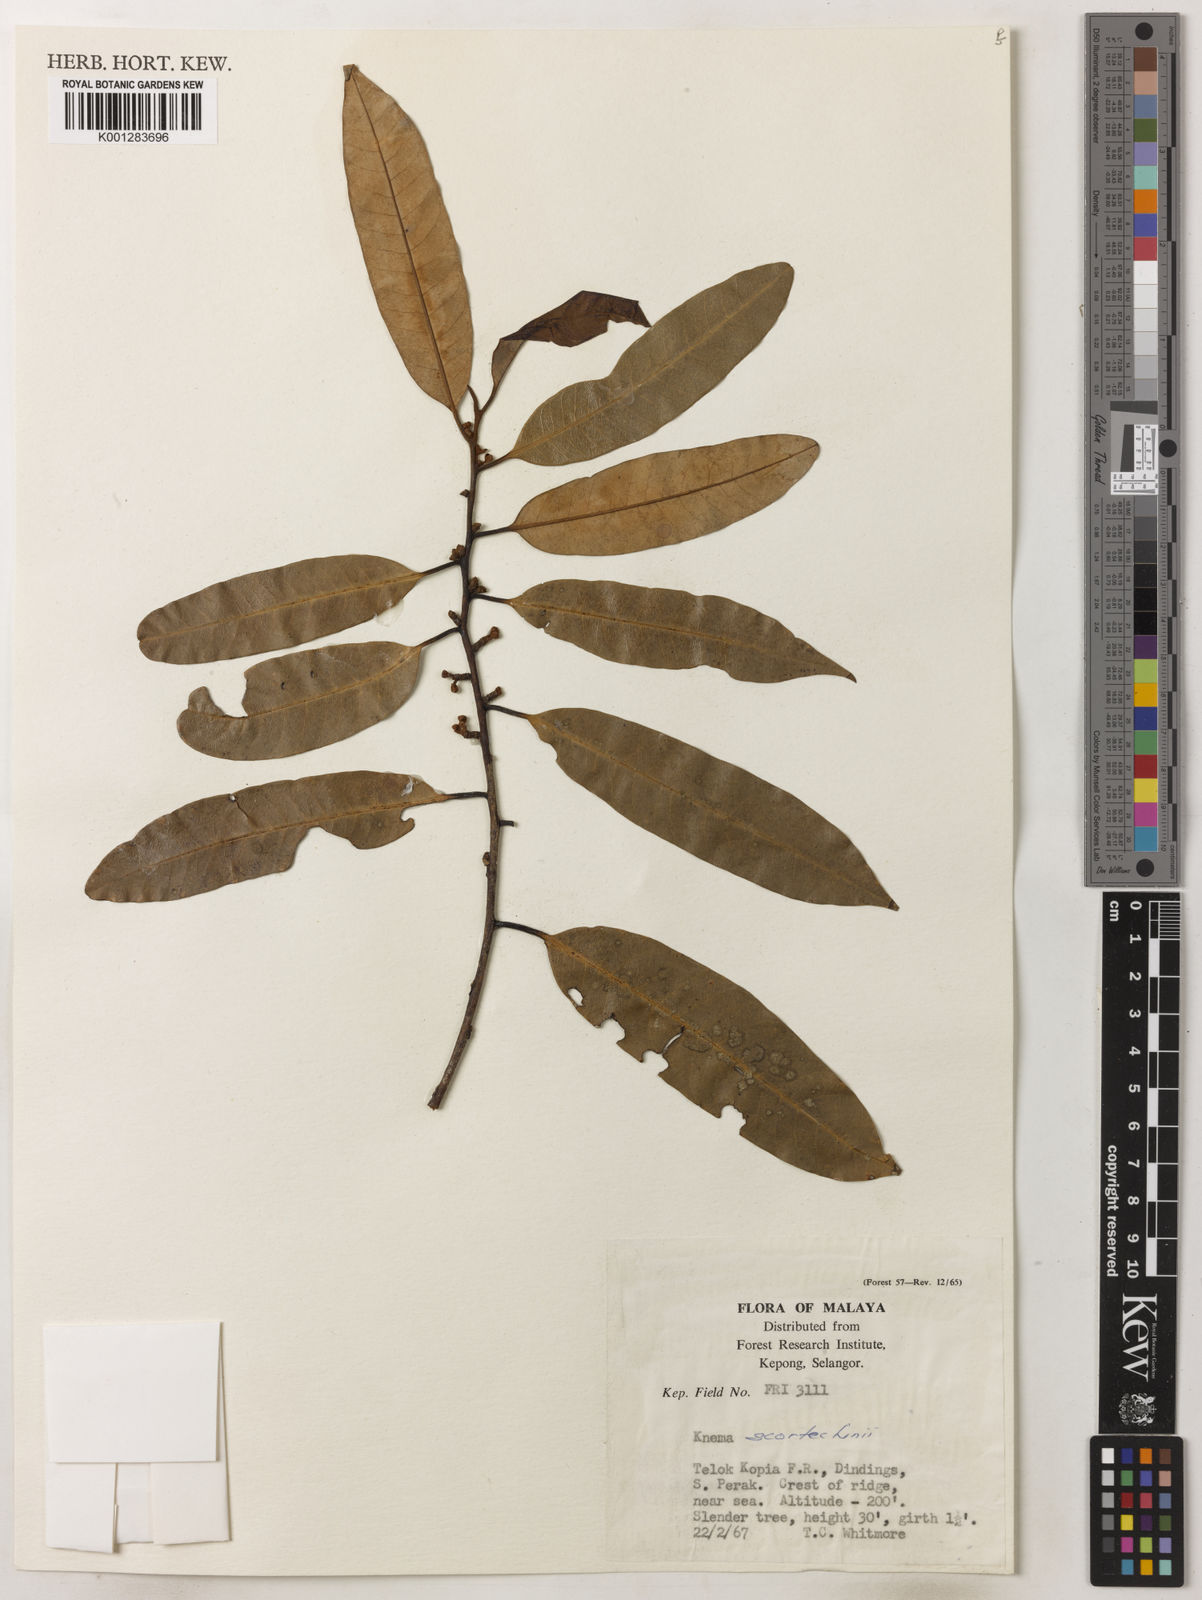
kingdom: Plantae
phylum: Tracheophyta
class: Magnoliopsida
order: Magnoliales
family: Myristicaceae
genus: Knema
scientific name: Knema scortechinii
